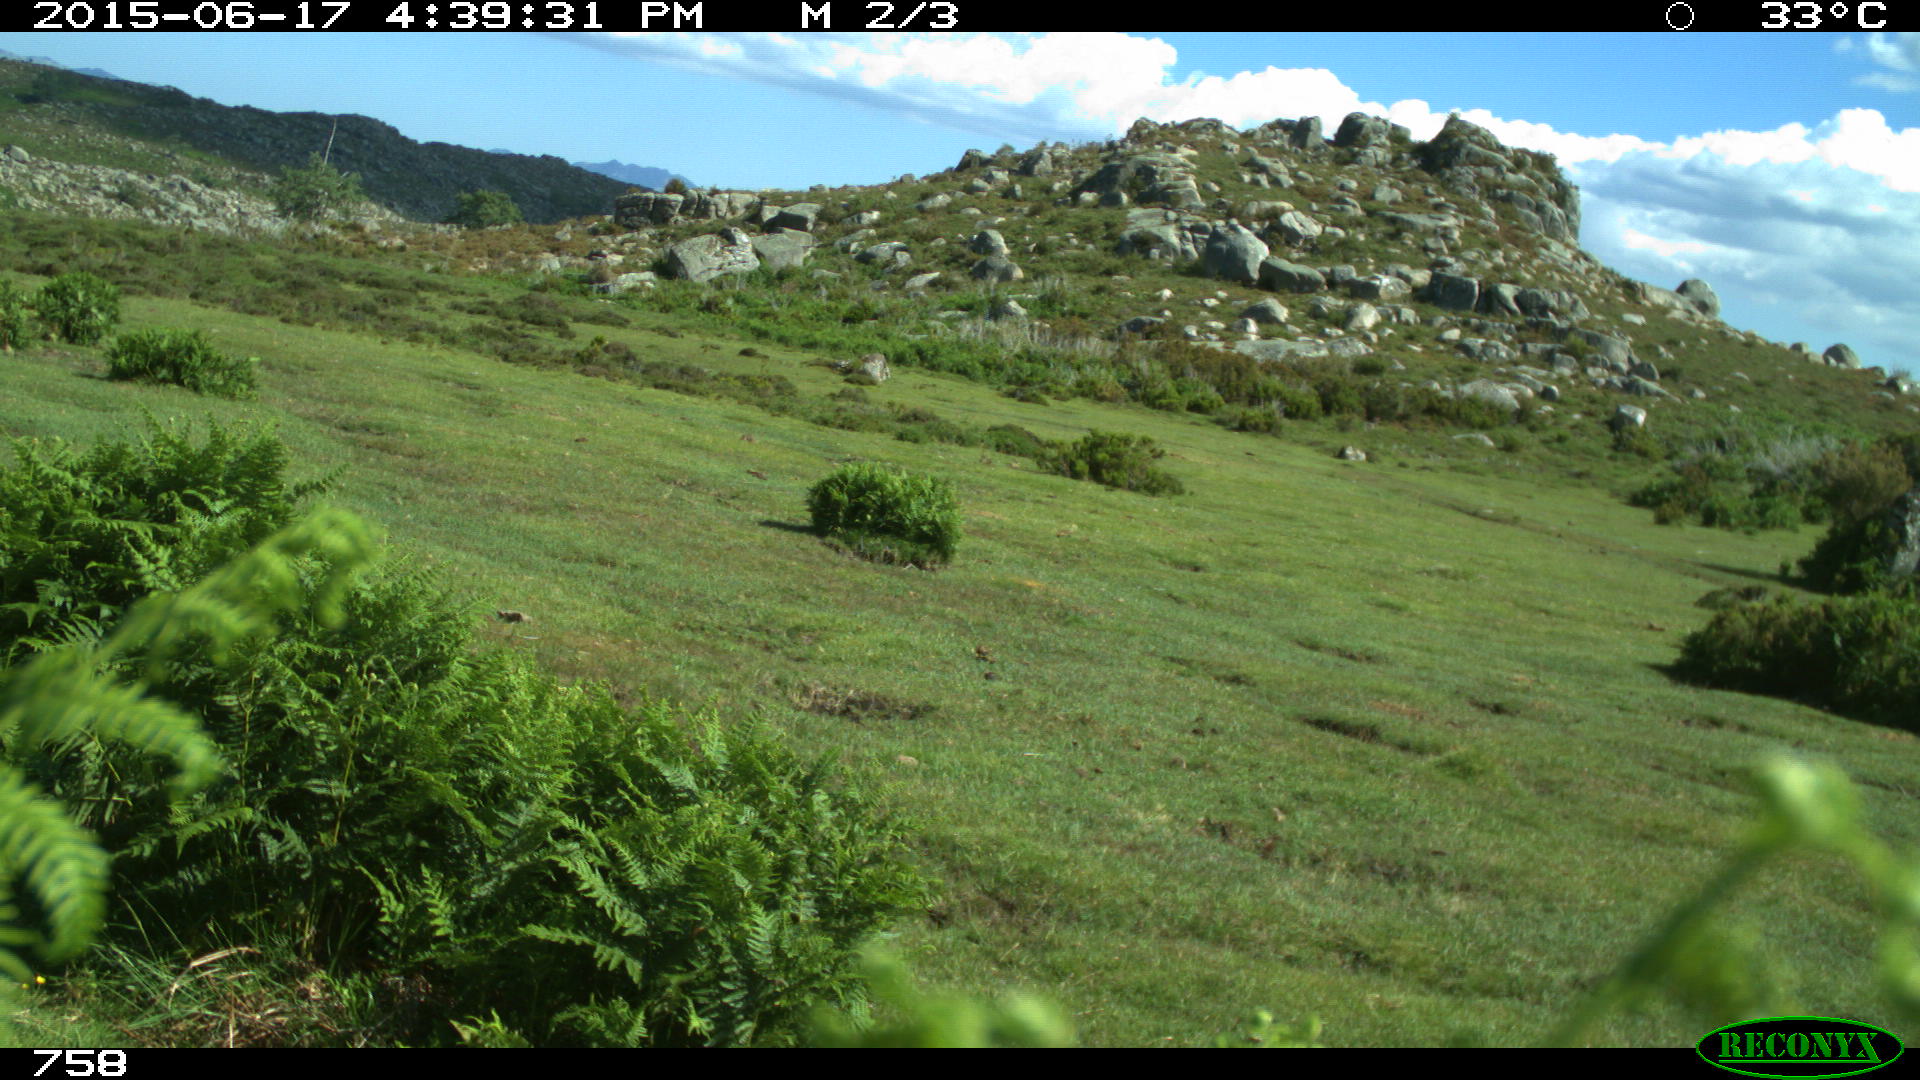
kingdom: Animalia
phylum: Chordata
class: Mammalia
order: Artiodactyla
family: Bovidae
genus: Bos
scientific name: Bos taurus
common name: Domesticated cattle
